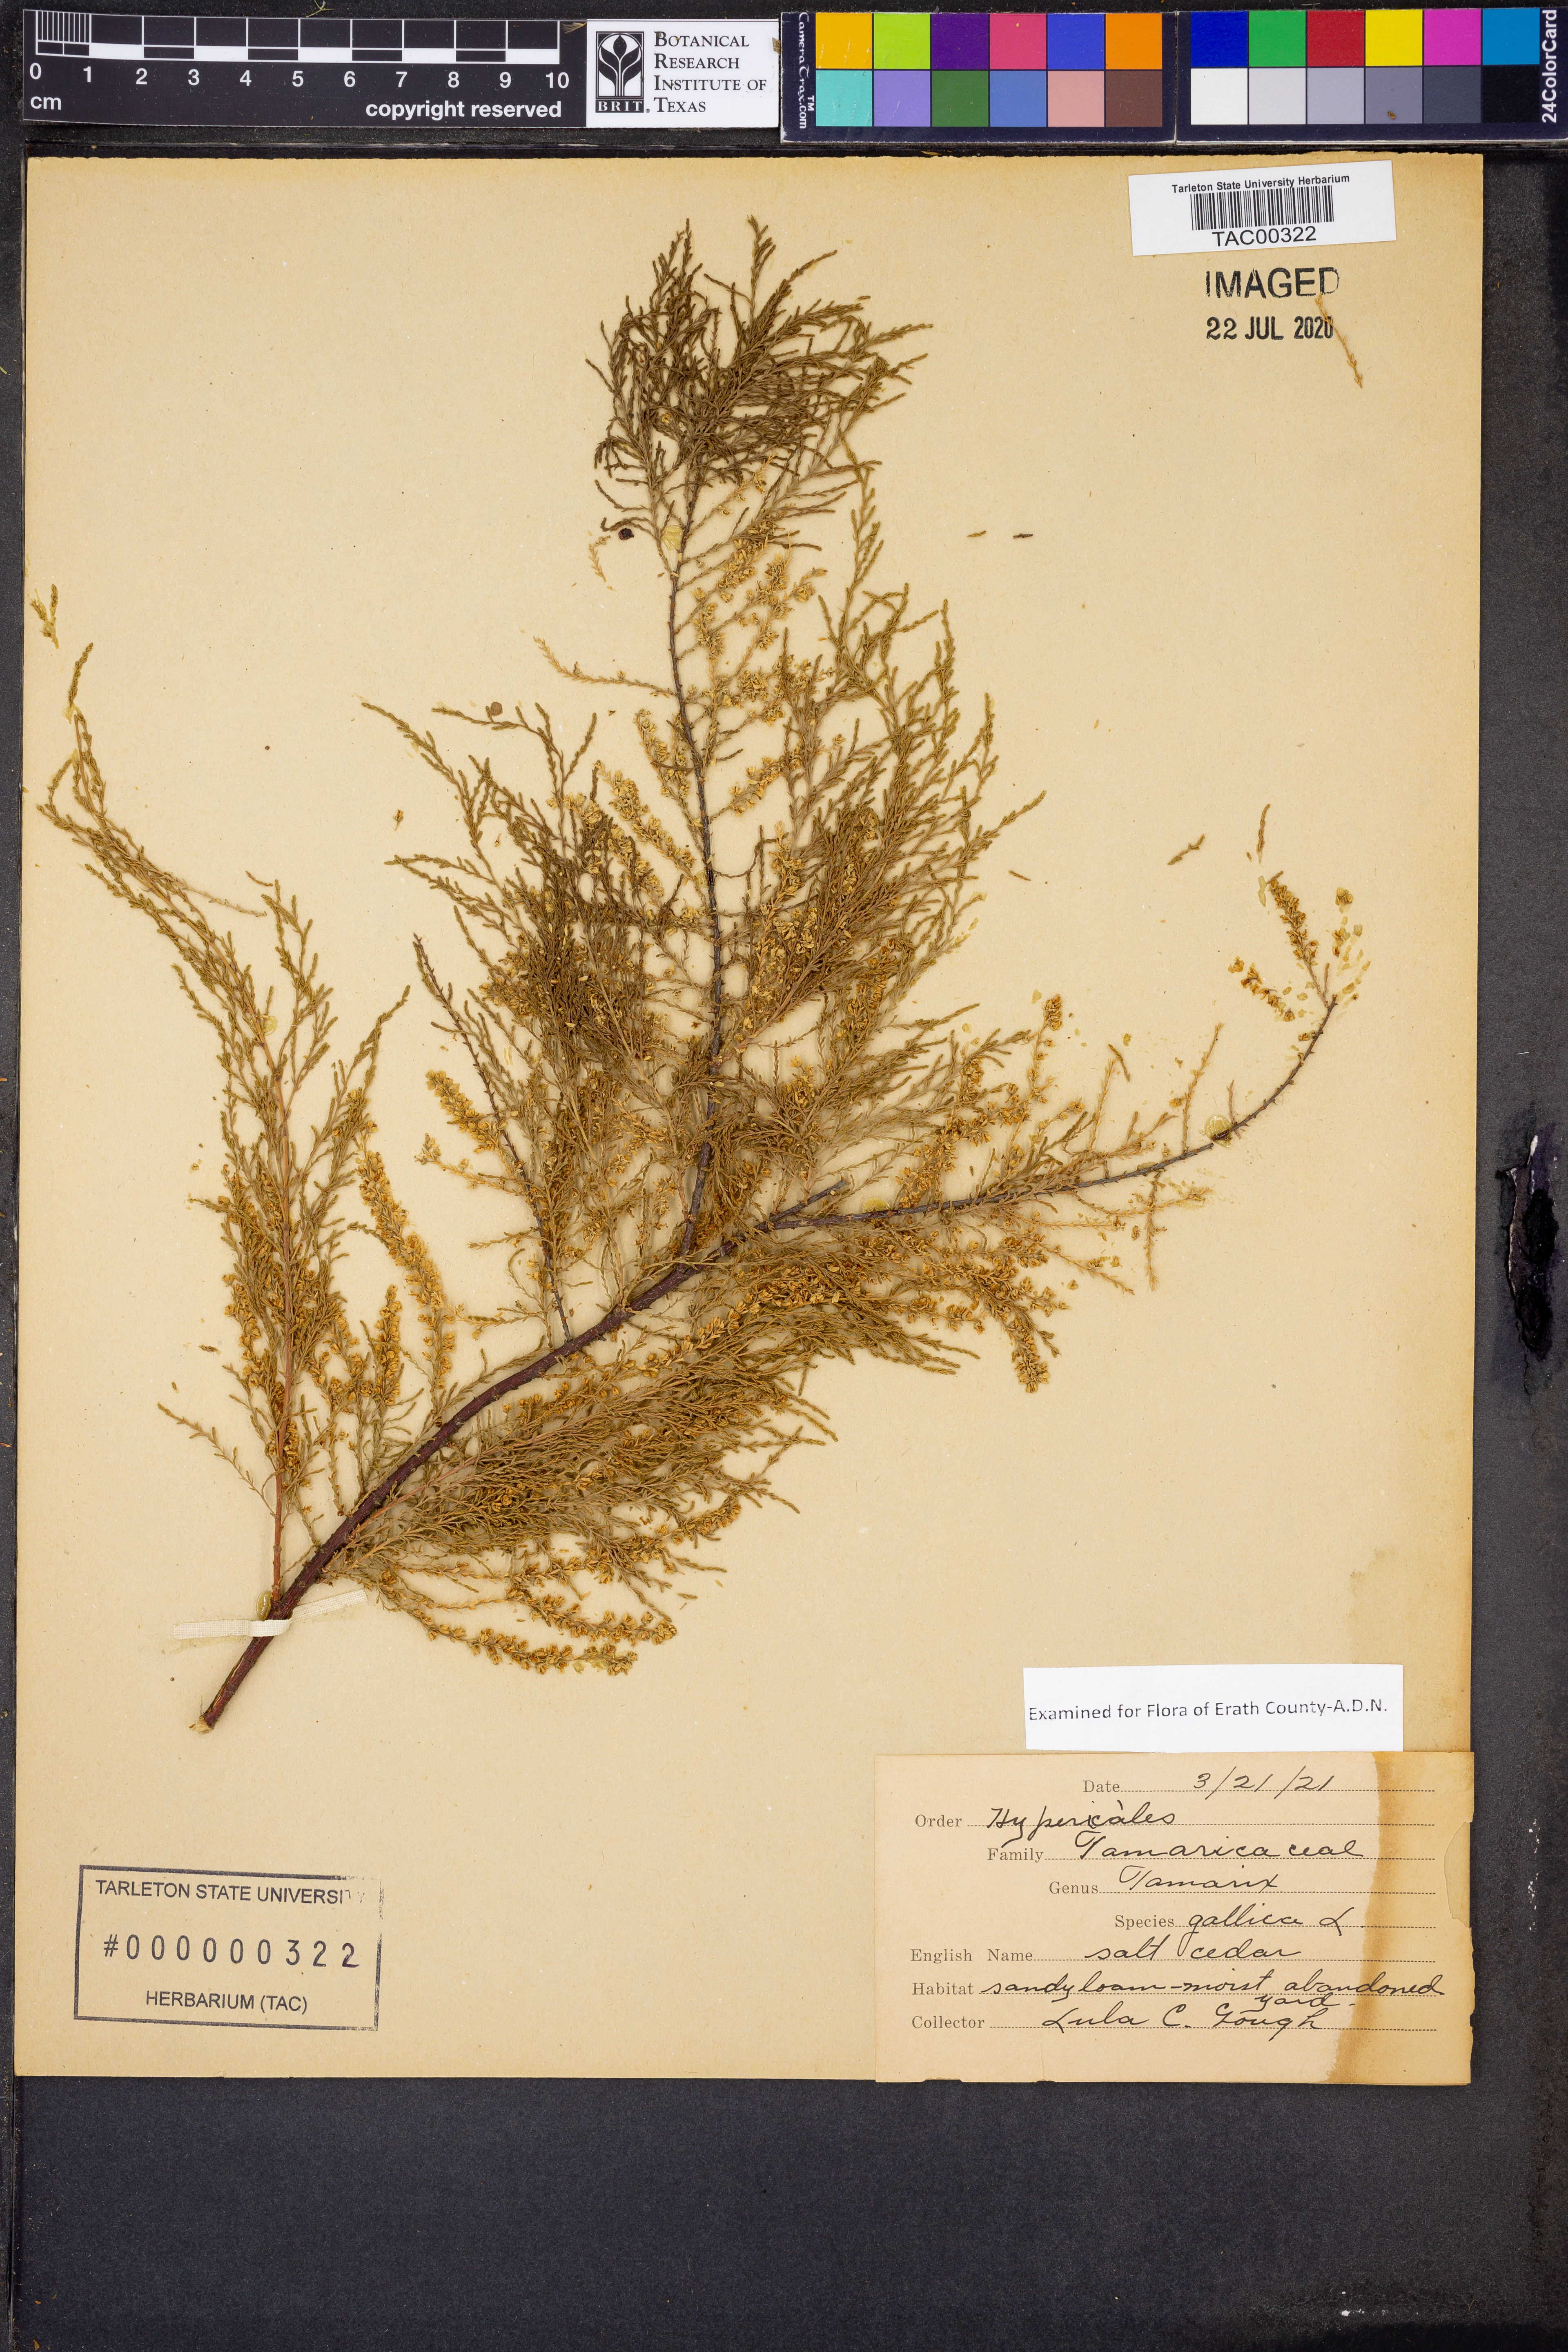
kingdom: Plantae
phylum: Tracheophyta
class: Magnoliopsida
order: Caryophyllales
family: Tamaricaceae
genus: Tamarix
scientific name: Tamarix gallica
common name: Tamarisk
